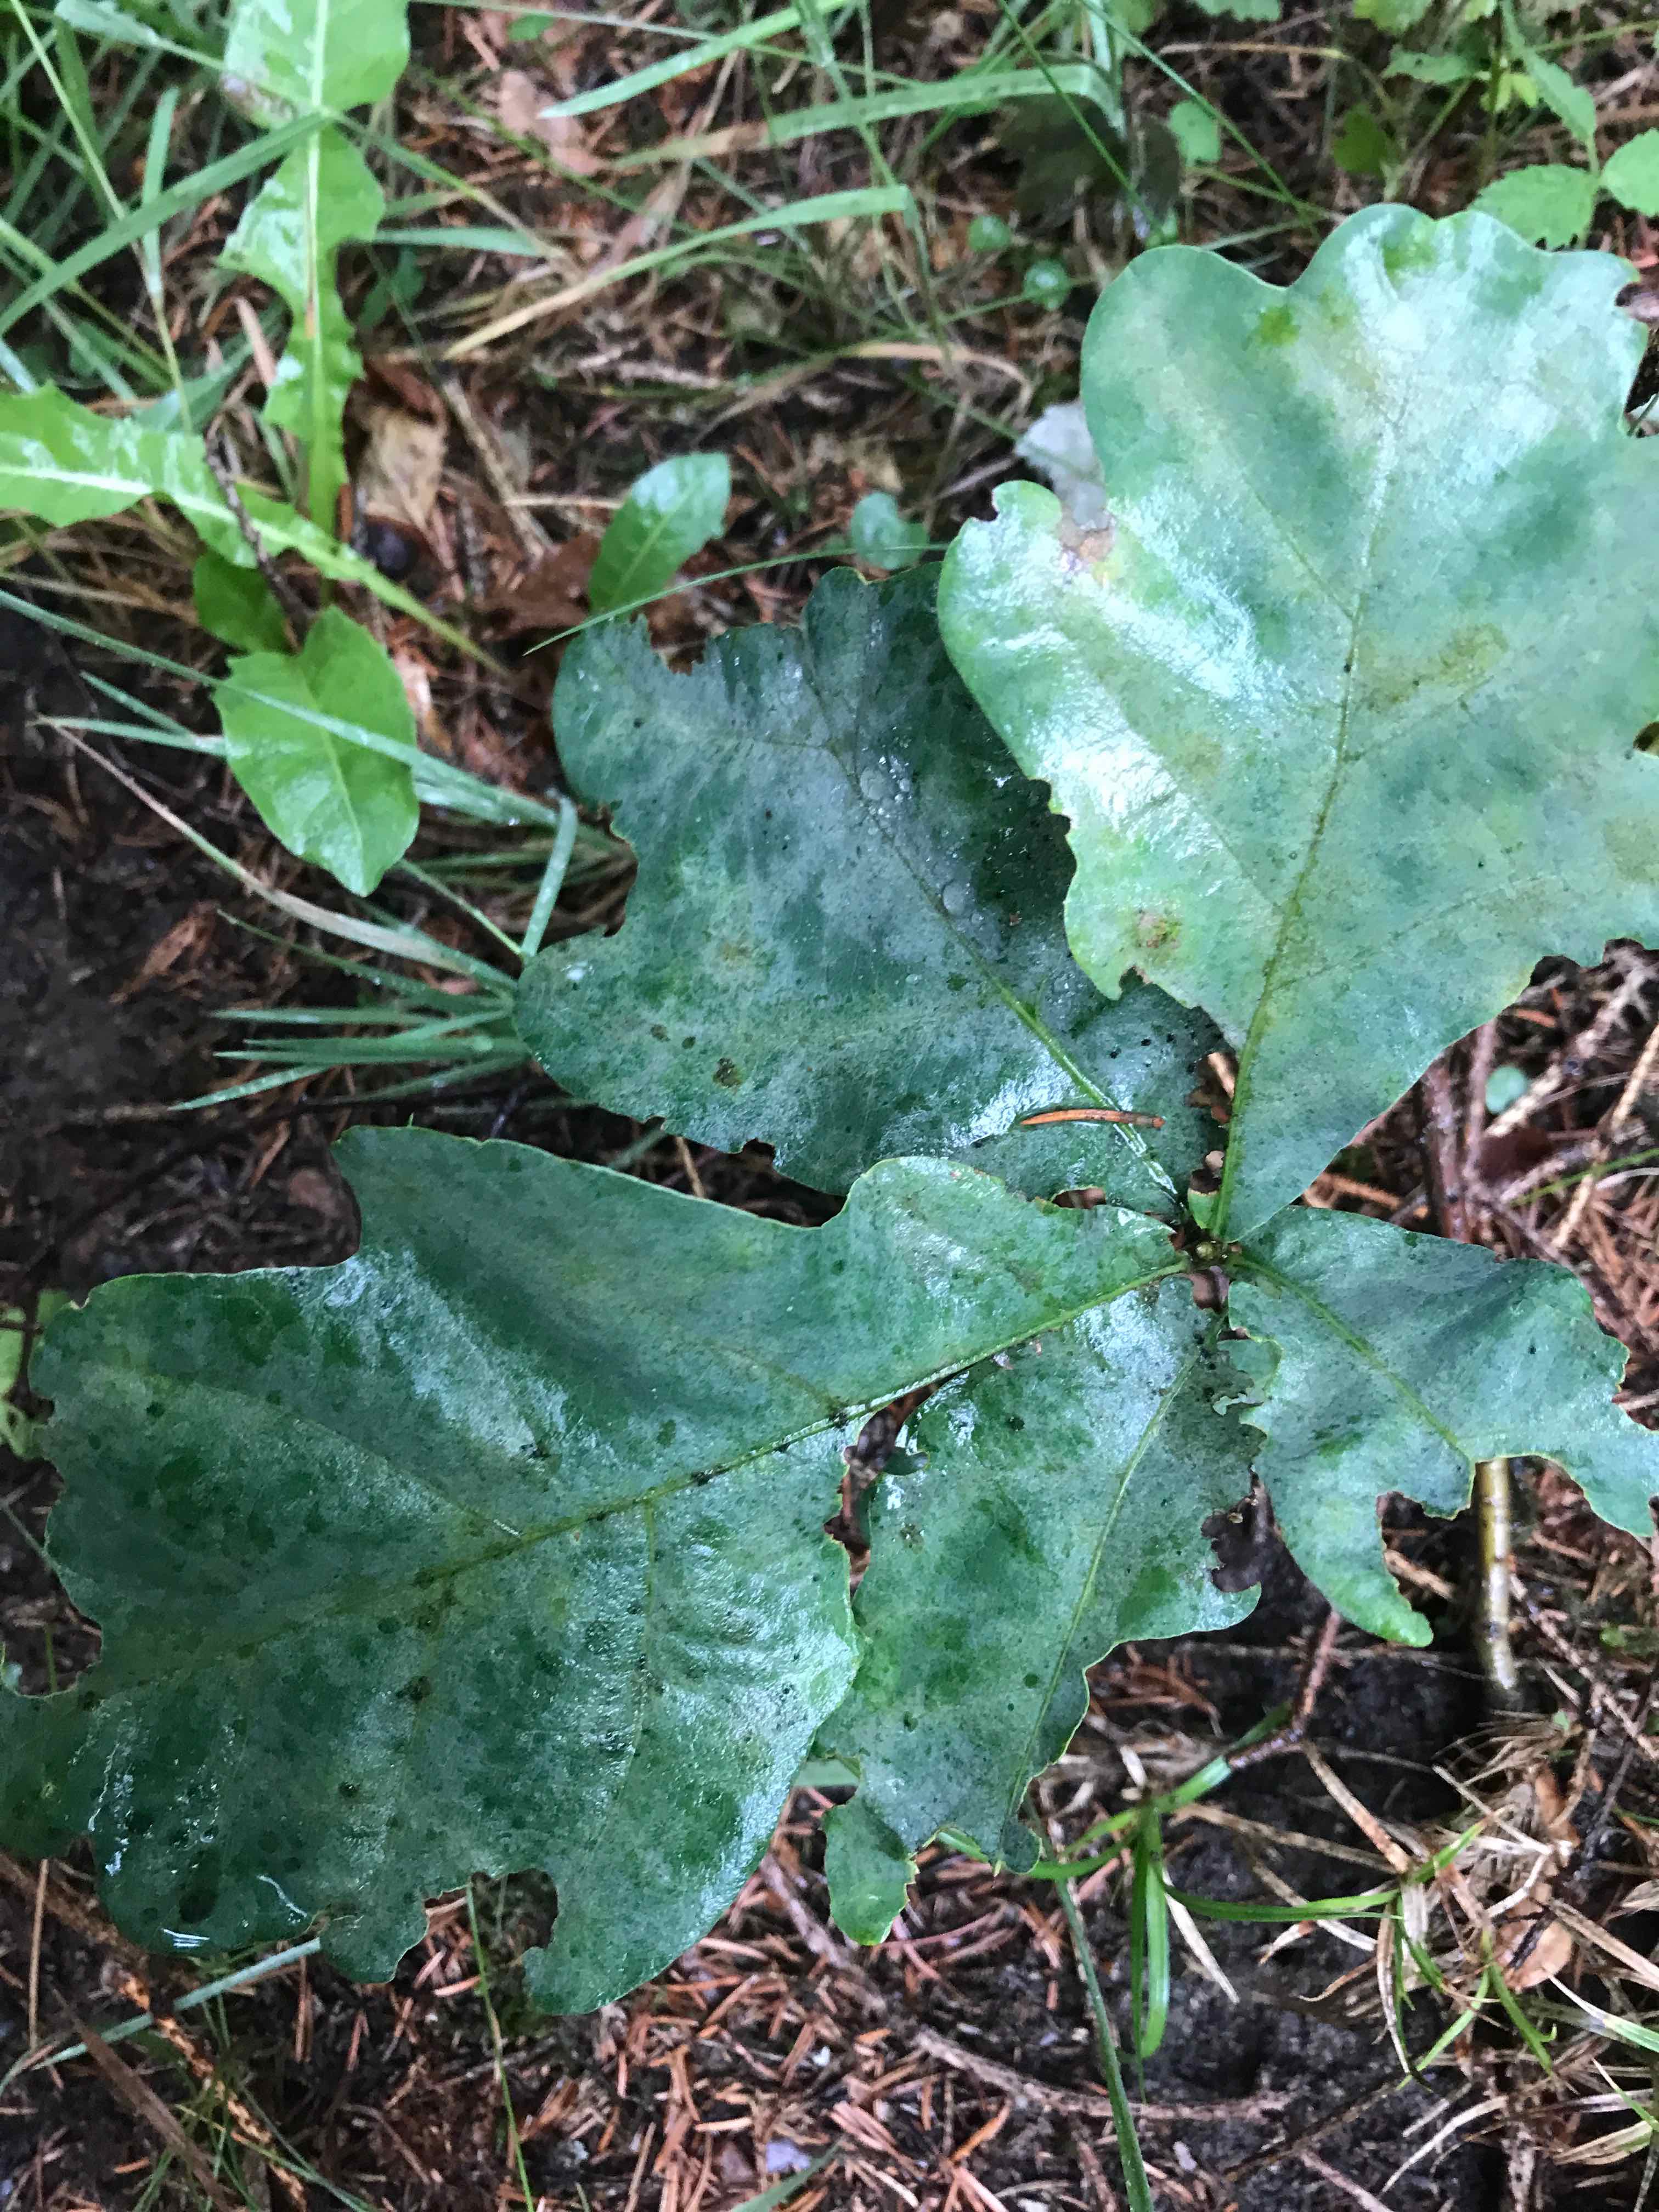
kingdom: Fungi
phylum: Ascomycota
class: Leotiomycetes
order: Helotiales
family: Erysiphaceae
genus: Erysiphe
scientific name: Erysiphe alphitoides
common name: ege-meldug
